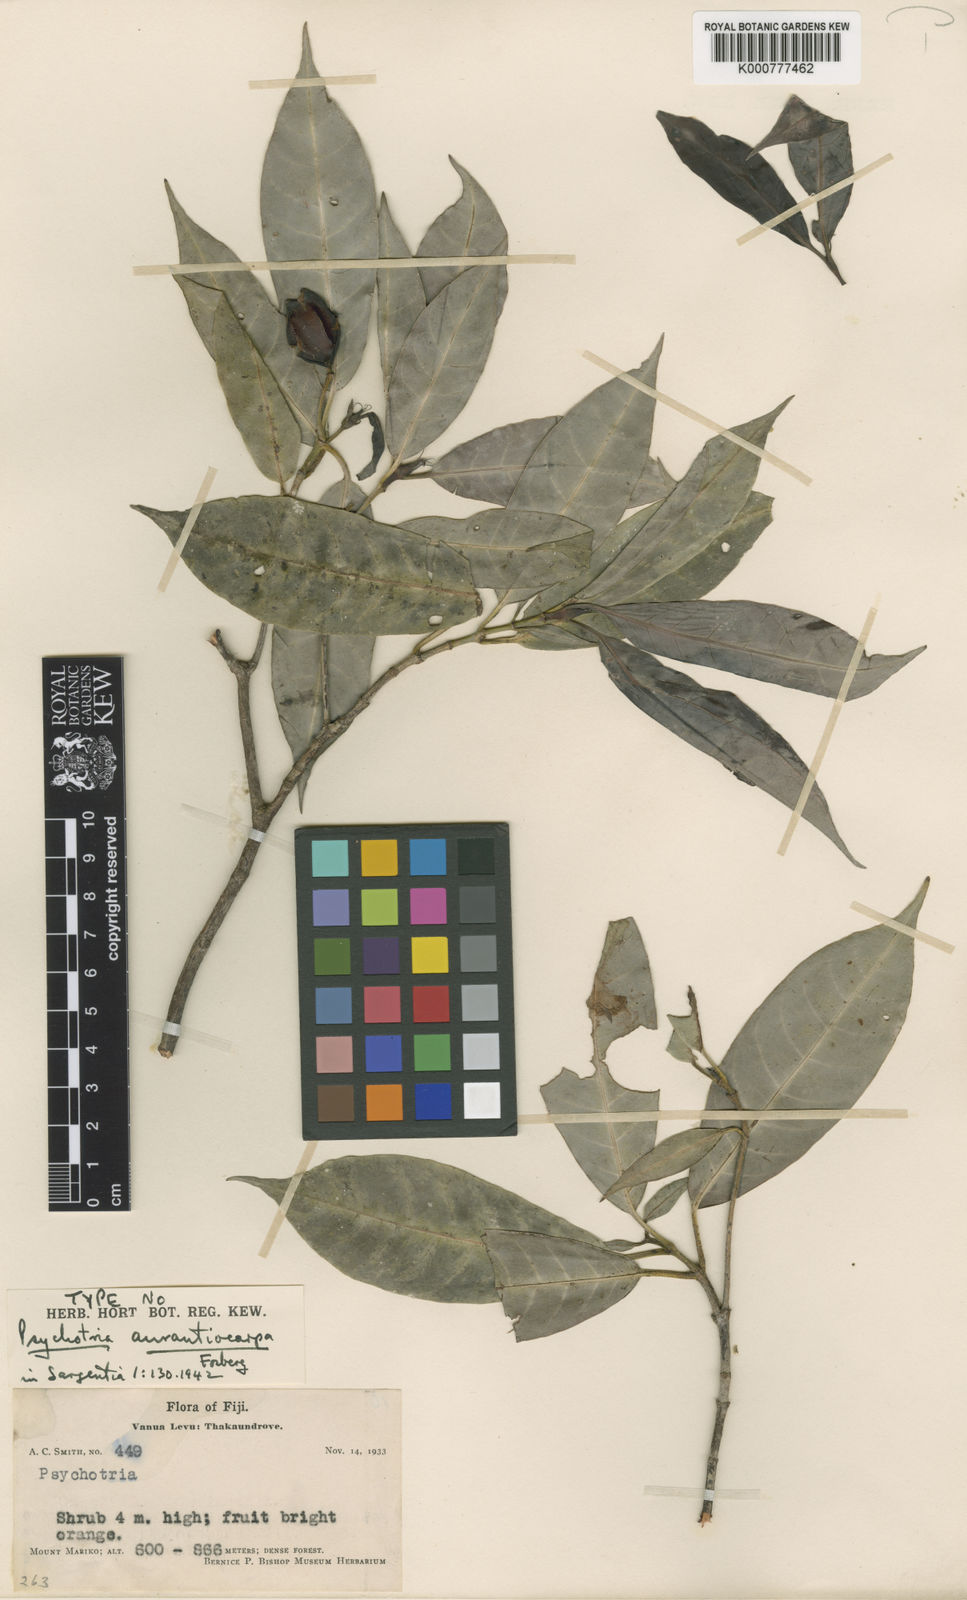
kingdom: Plantae
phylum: Tracheophyta
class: Magnoliopsida
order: Gentianales
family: Rubiaceae
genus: Psychotria
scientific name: Psychotria aurantiocarpa
